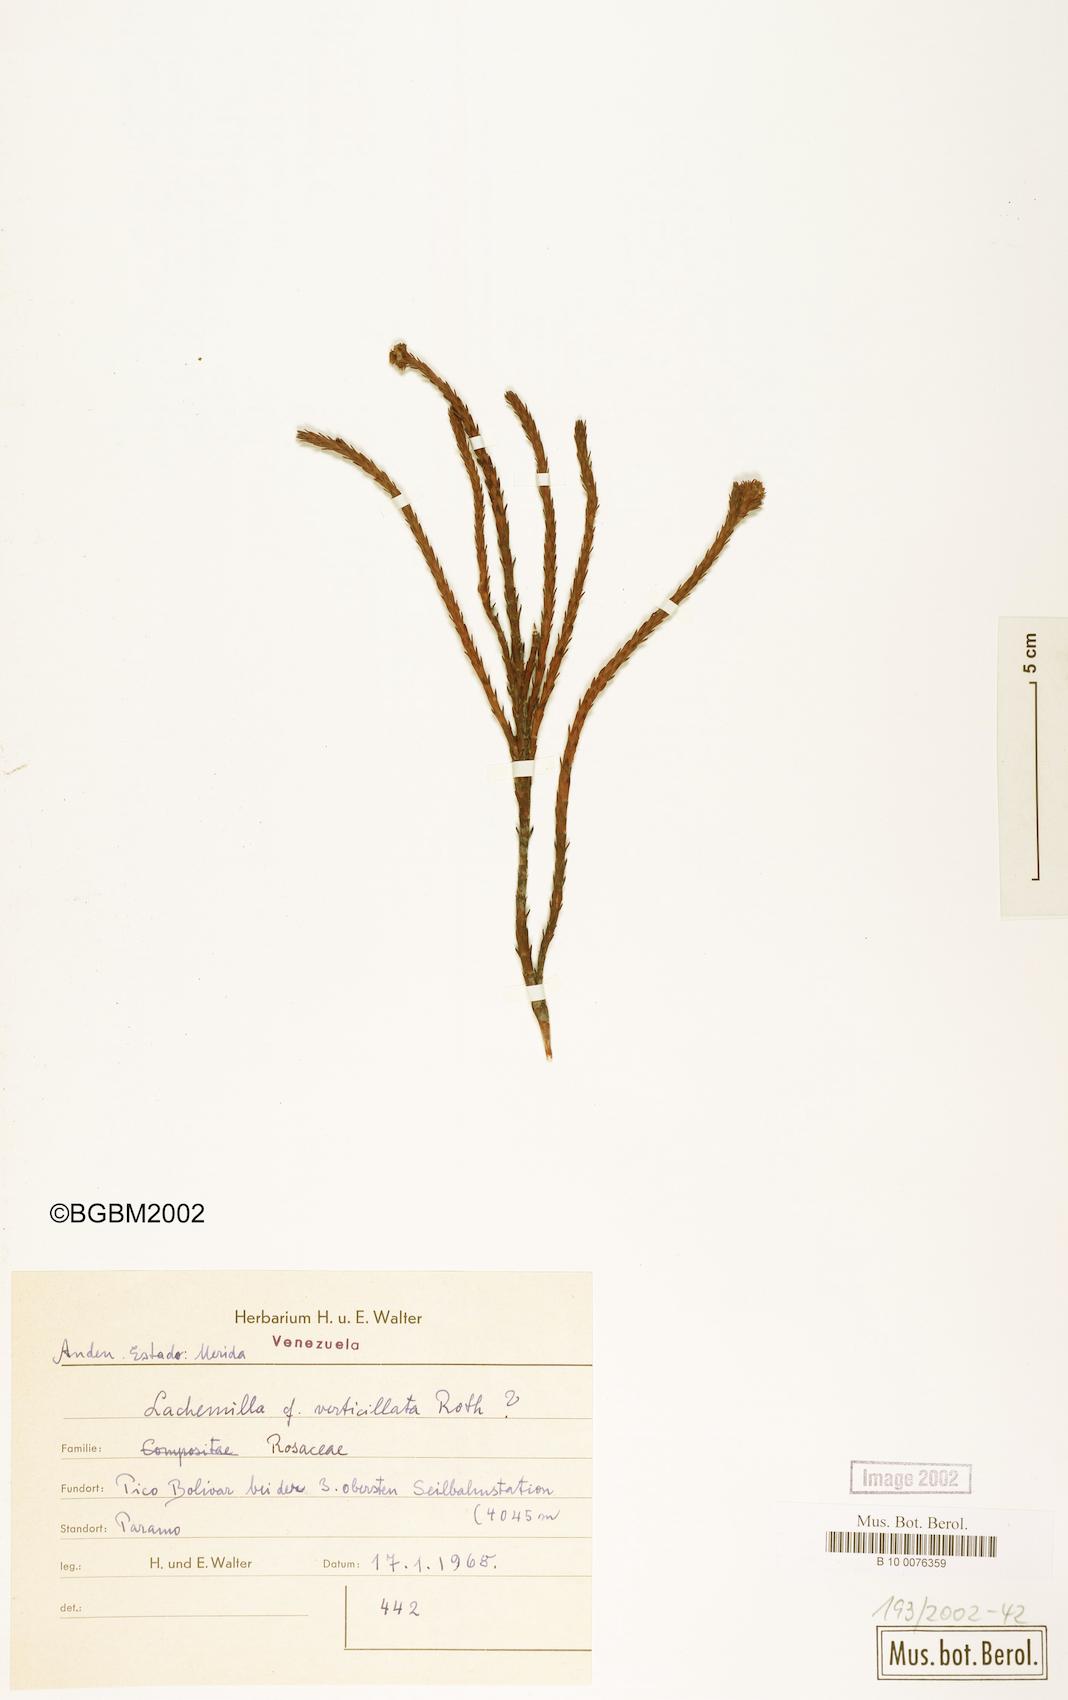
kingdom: Plantae
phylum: Tracheophyta
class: Magnoliopsida
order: Rosales
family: Rosaceae
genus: Lachemilla
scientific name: Lachemilla verticillata
